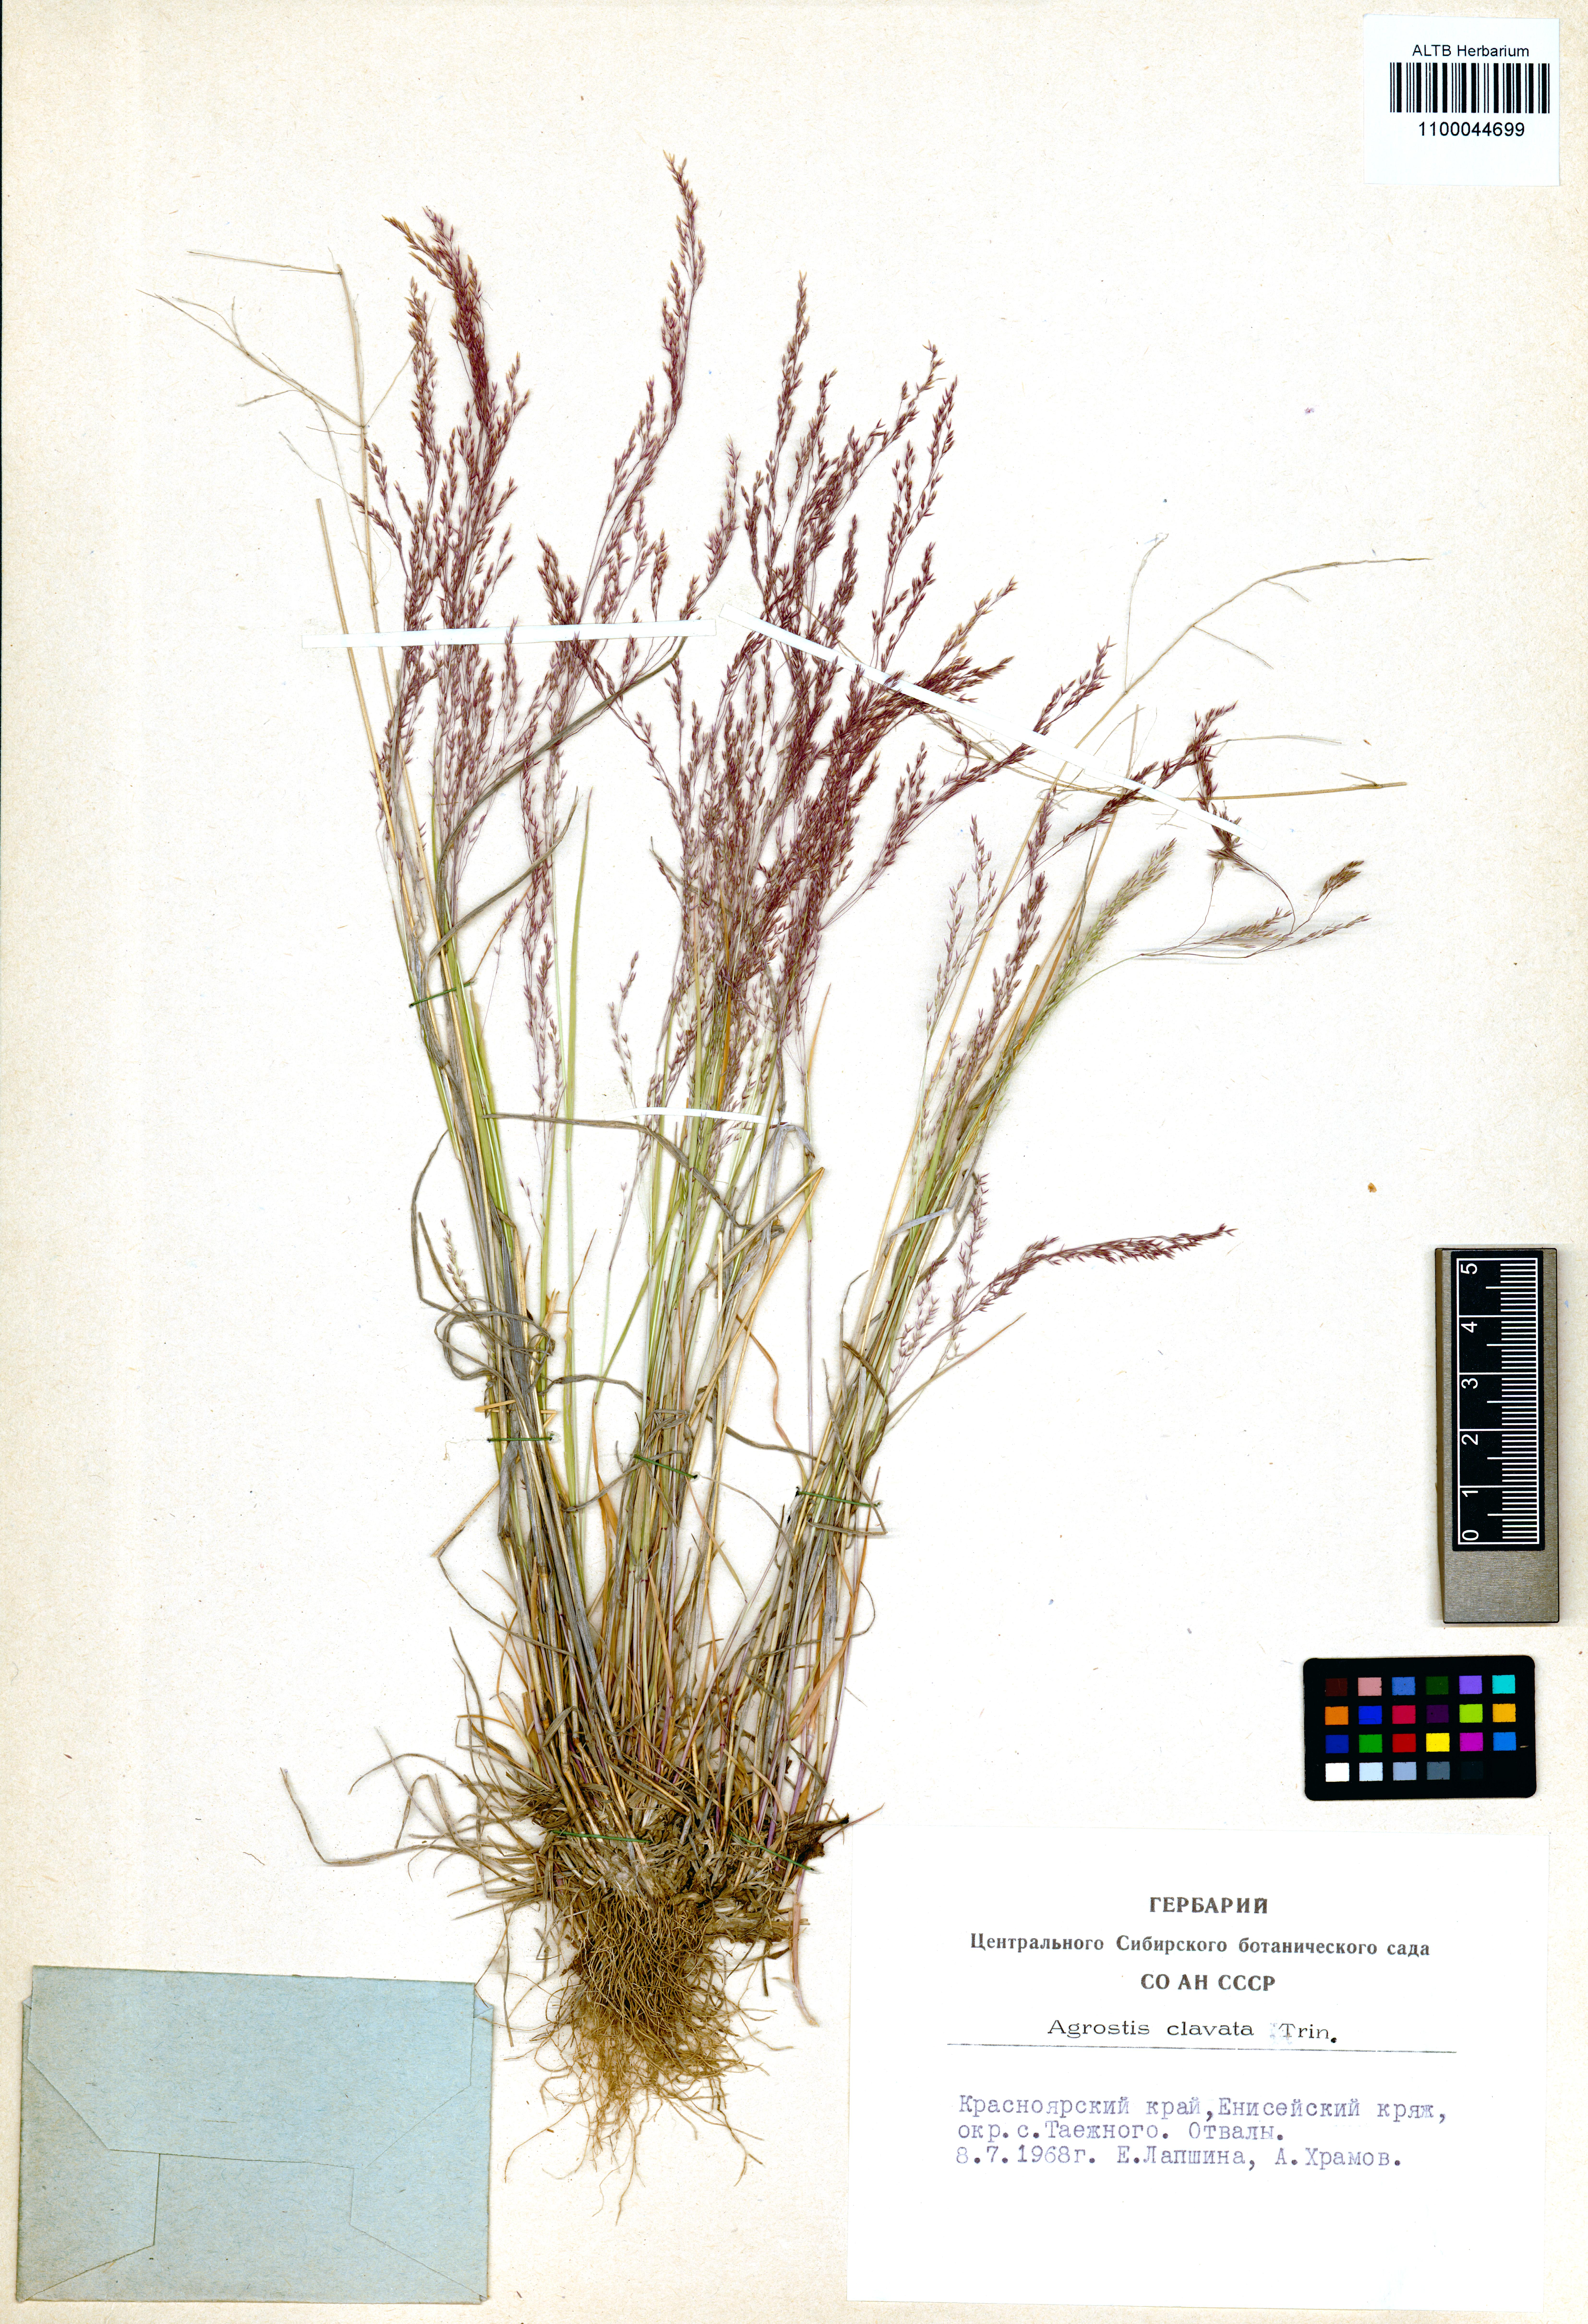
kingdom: Plantae
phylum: Tracheophyta
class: Liliopsida
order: Poales
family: Poaceae
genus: Agrostis
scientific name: Agrostis clavata
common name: Clavate bent
